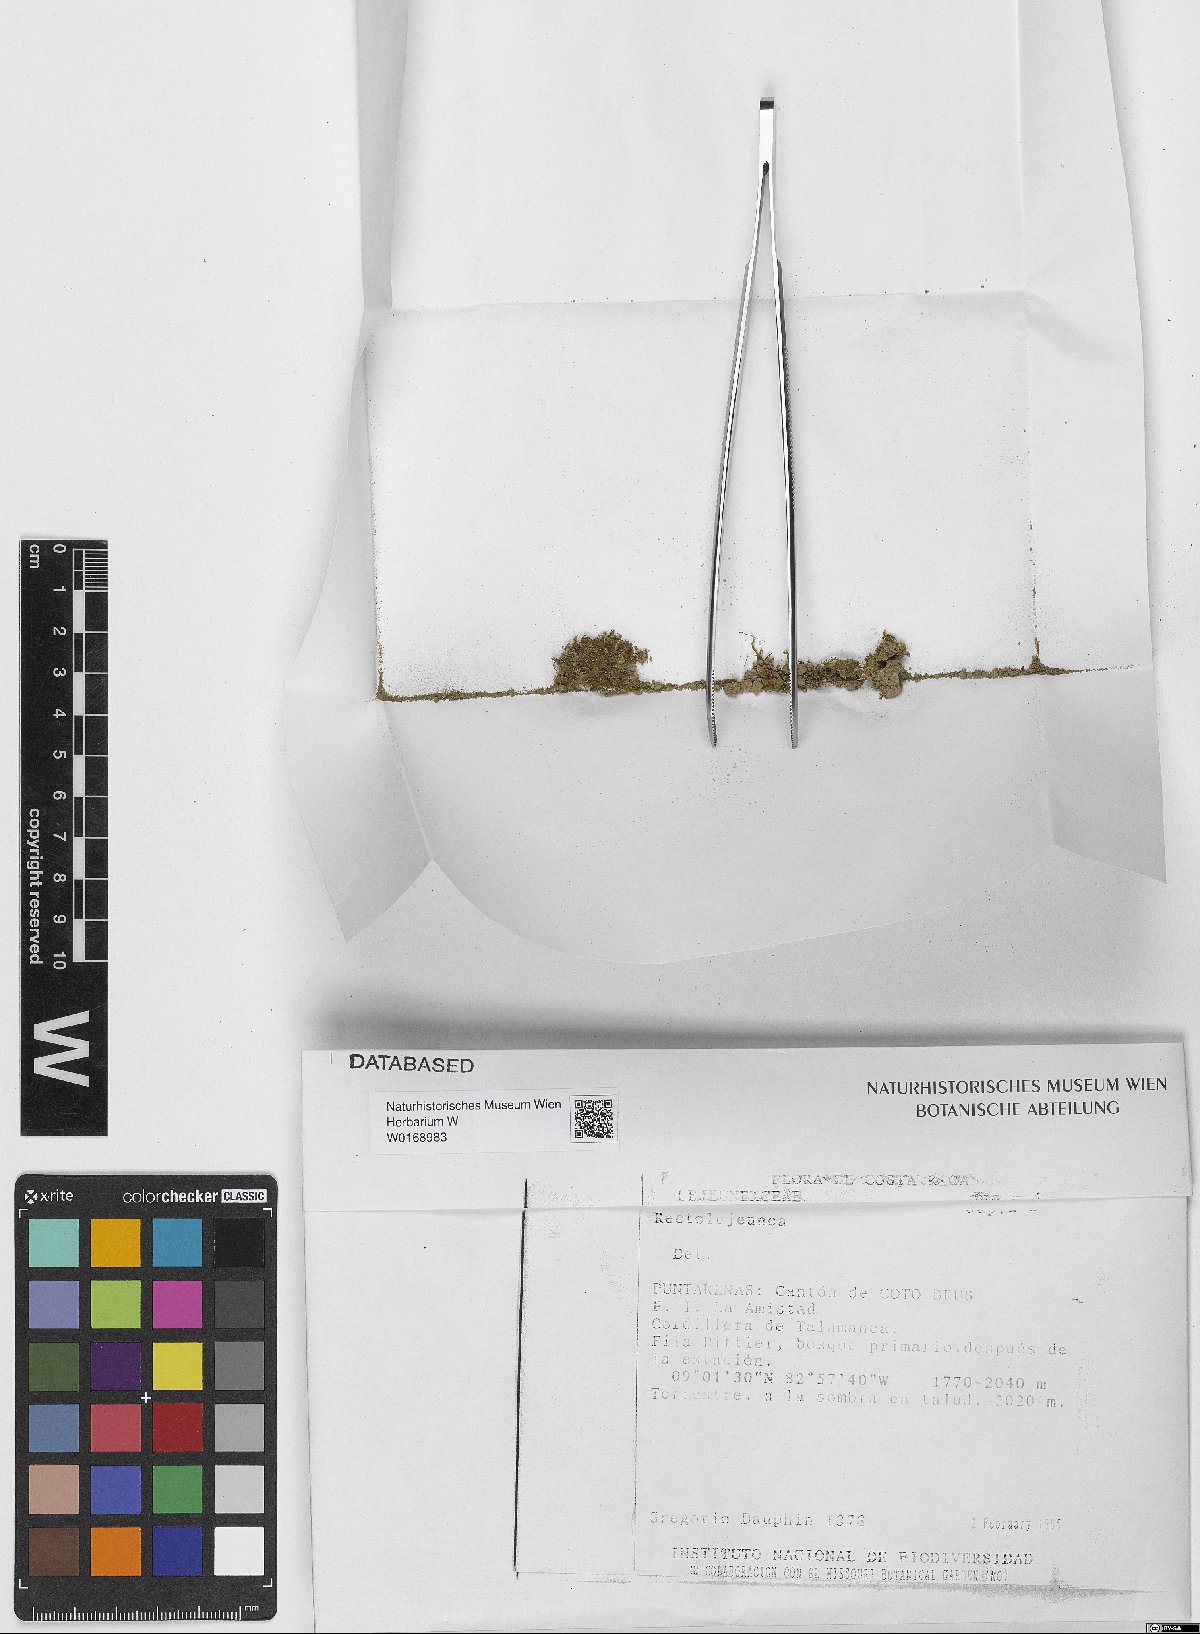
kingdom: Plantae
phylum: Marchantiophyta
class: Jungermanniopsida
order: Porellales
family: Lejeuneaceae
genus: Rectolejeunea
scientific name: Rectolejeunea
